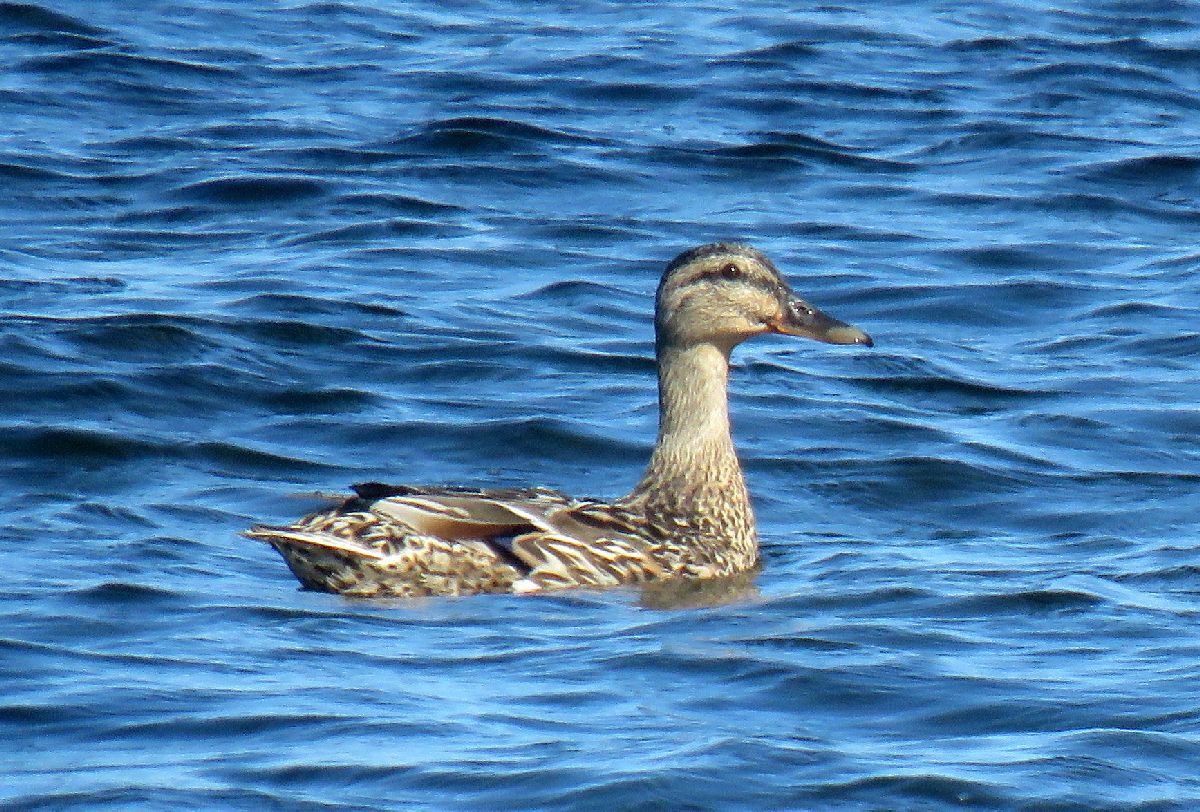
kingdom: Animalia
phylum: Chordata
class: Aves
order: Anseriformes
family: Anatidae
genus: Anas
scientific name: Anas platyrhynchos
